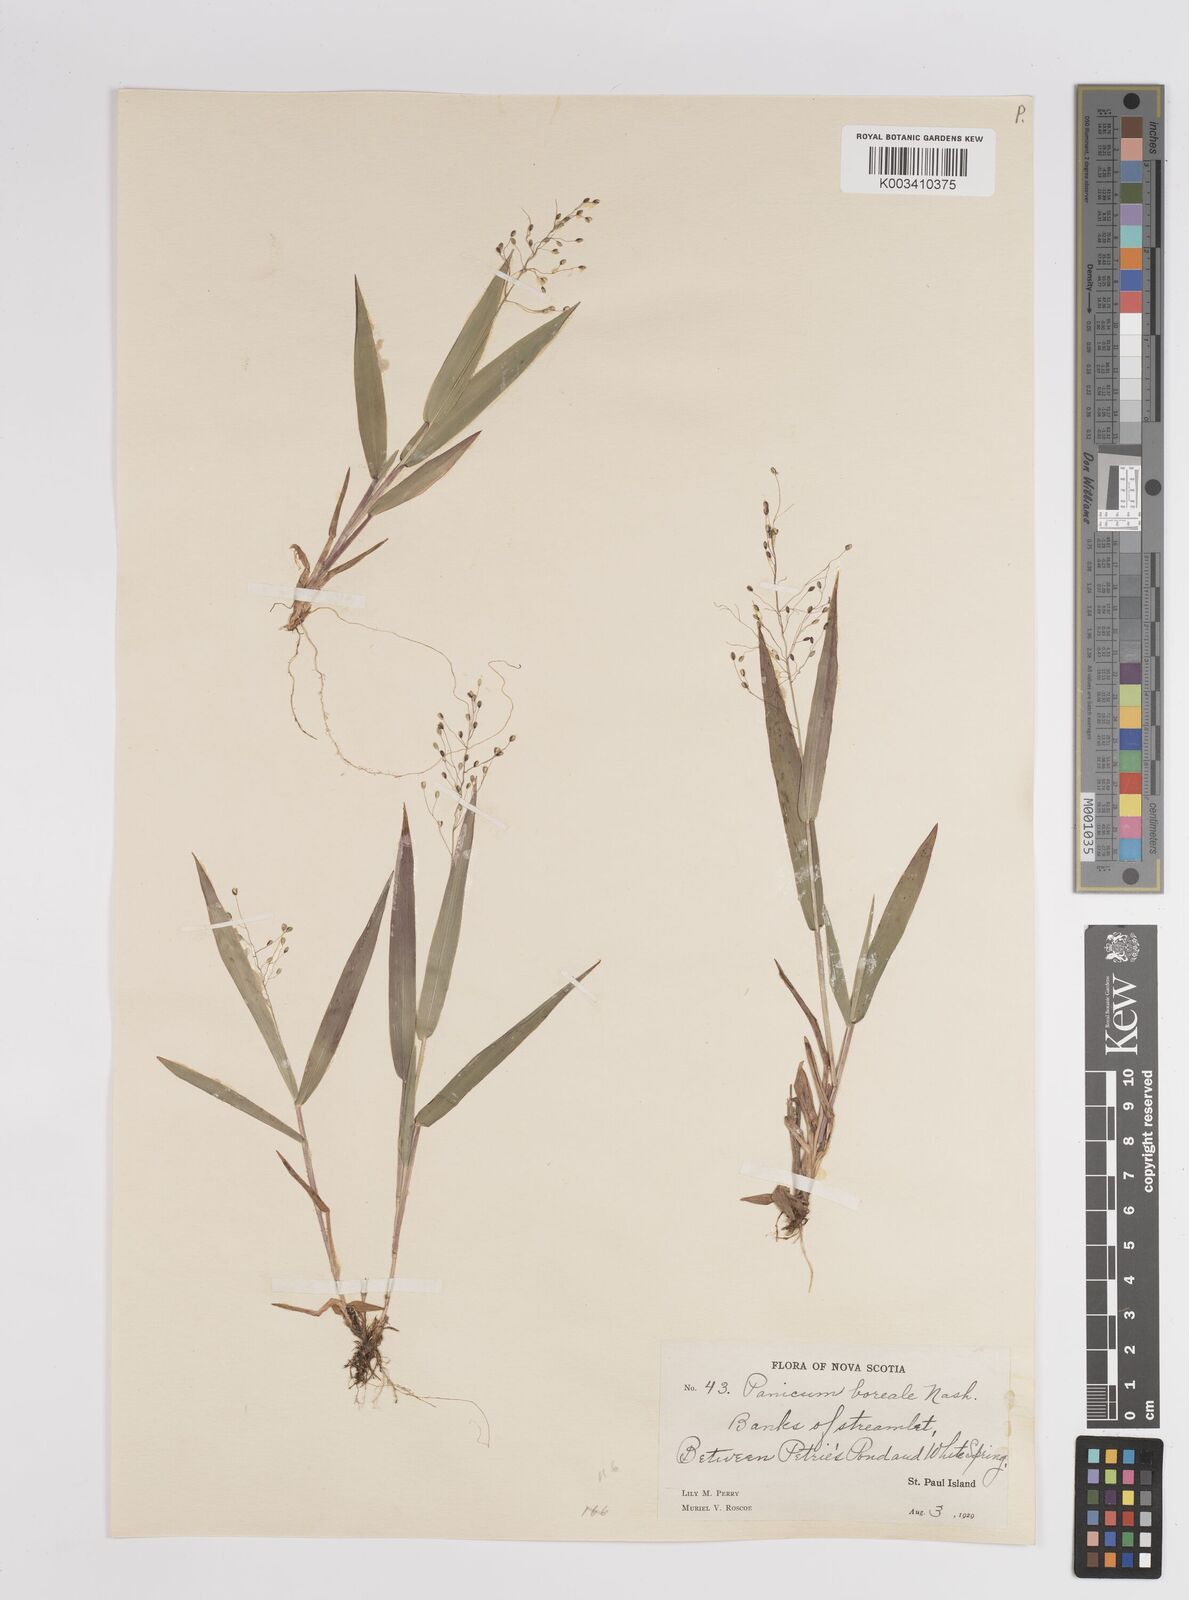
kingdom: Plantae
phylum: Tracheophyta
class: Liliopsida
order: Poales
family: Poaceae
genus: Dichanthelium
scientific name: Dichanthelium boreale
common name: Northern panicgrass
